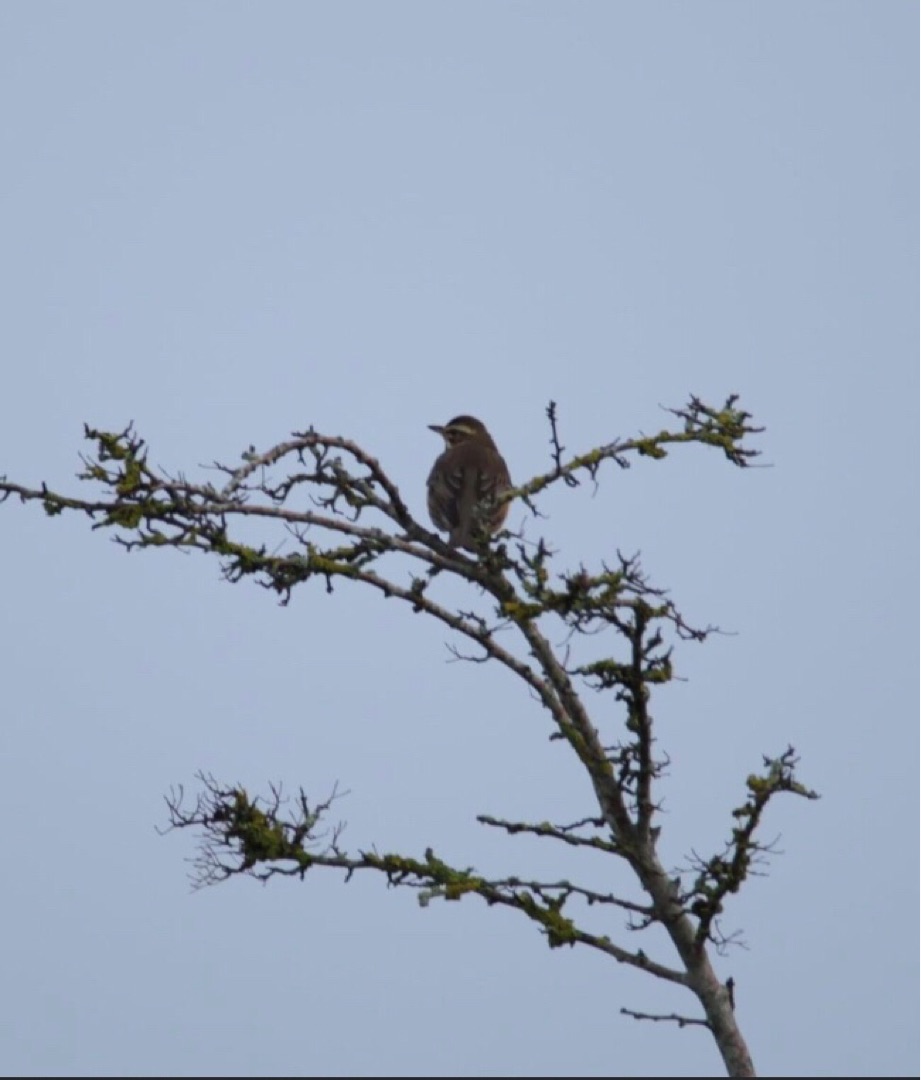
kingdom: Animalia
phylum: Chordata
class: Aves
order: Passeriformes
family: Turdidae
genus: Turdus
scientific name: Turdus iliacus
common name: Vindrossel
